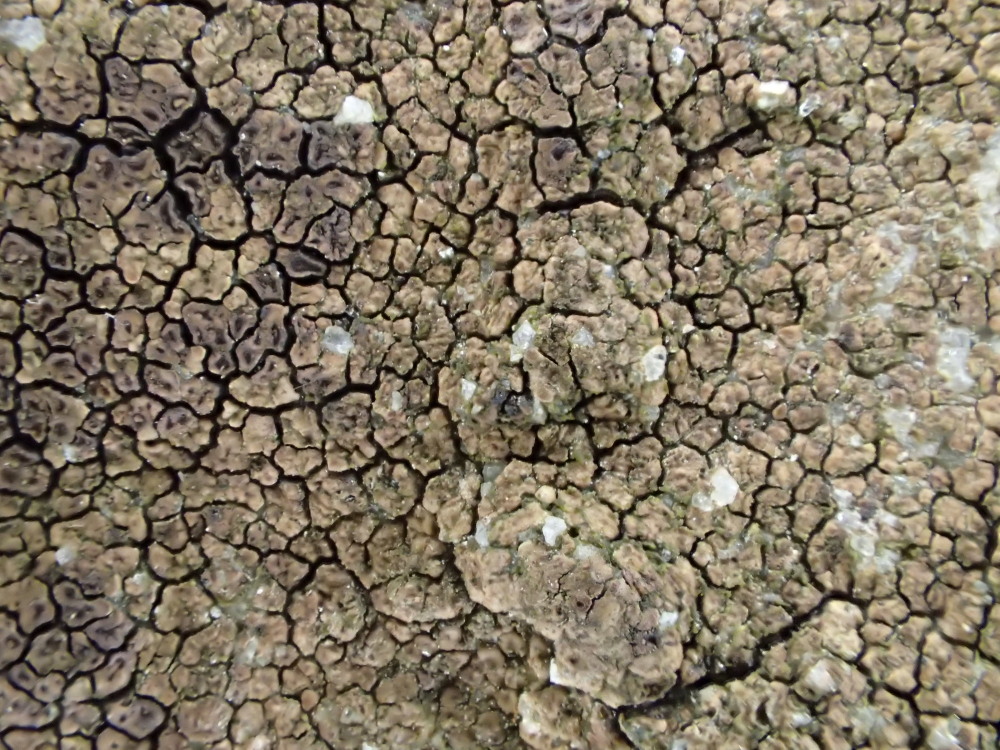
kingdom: Fungi
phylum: Ascomycota
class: Lecanoromycetes
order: Acarosporales
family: Acarosporaceae
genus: Acarospora
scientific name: Acarospora fuscata
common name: brun småsporelav
